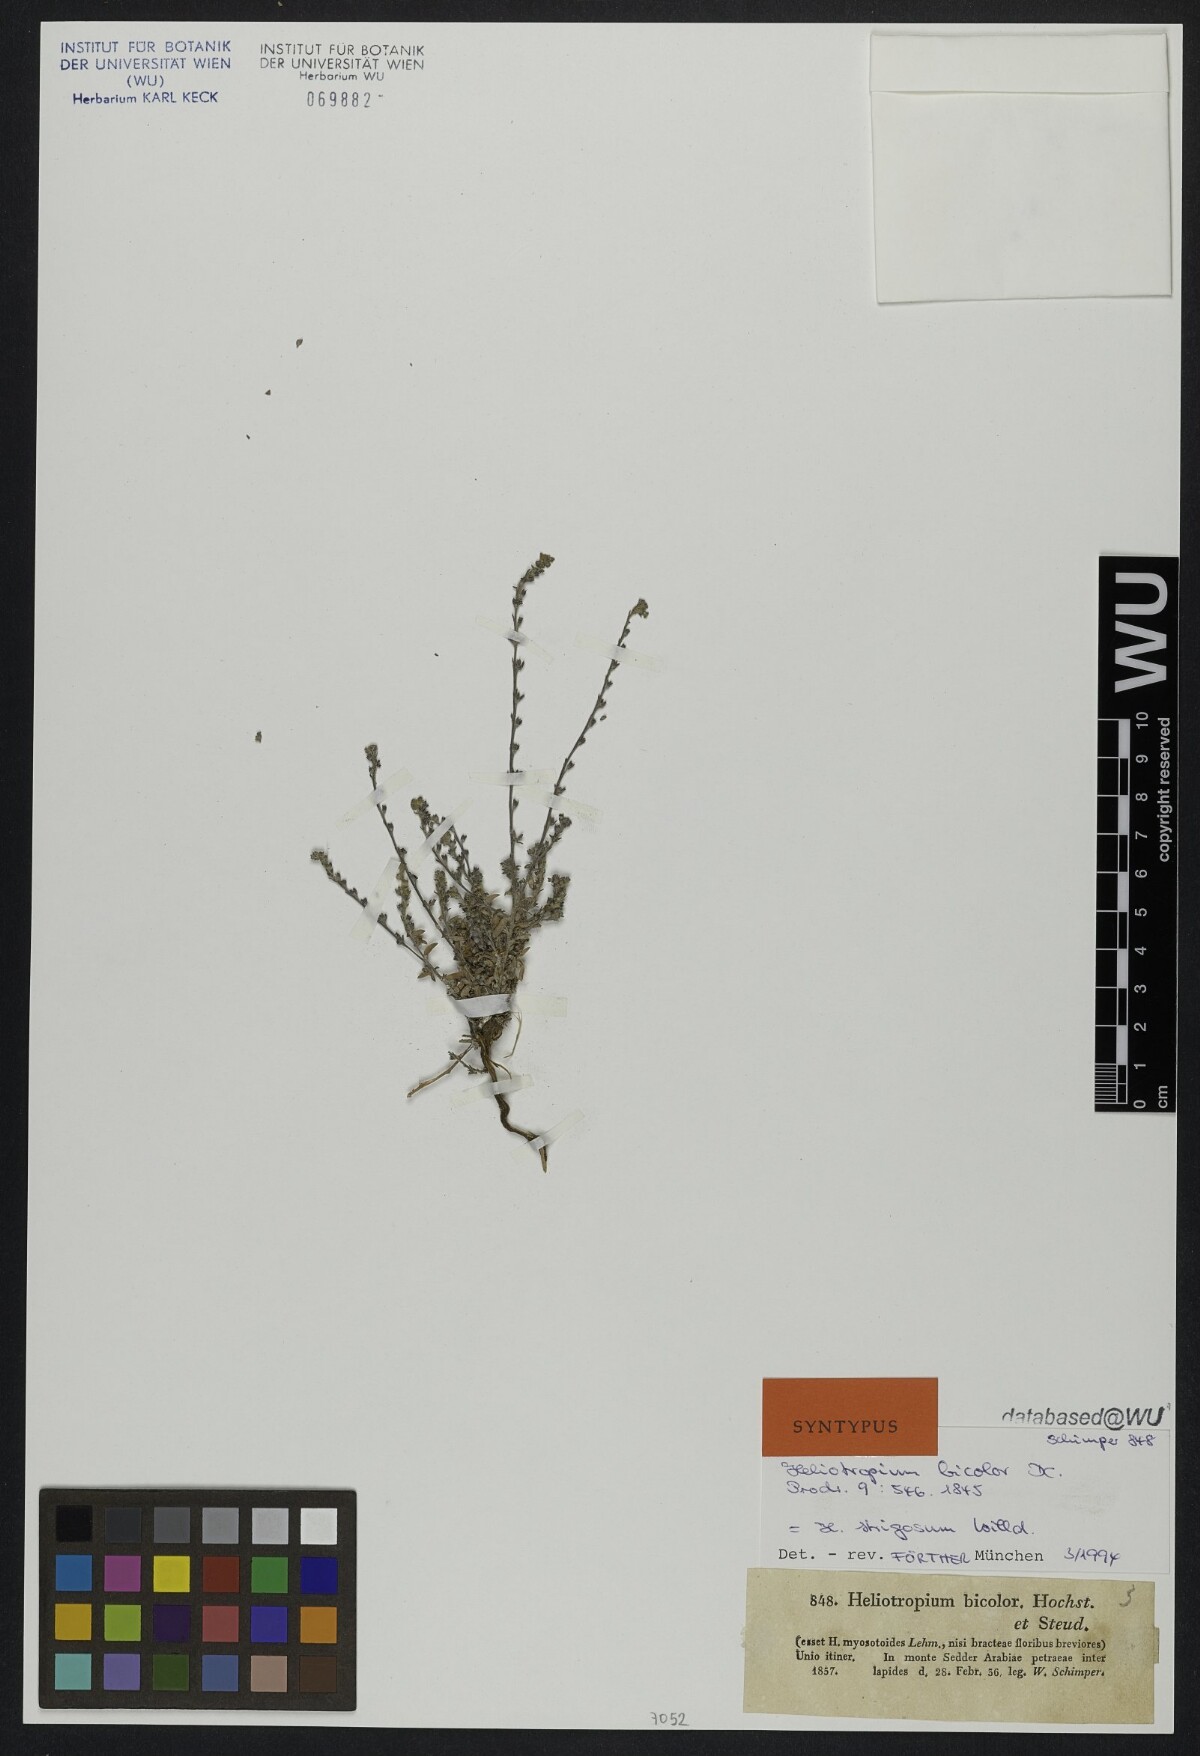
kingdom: Plantae
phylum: Tracheophyta
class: Magnoliopsida
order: Boraginales
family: Heliotropiaceae
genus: Euploca
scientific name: Euploca strigosa
